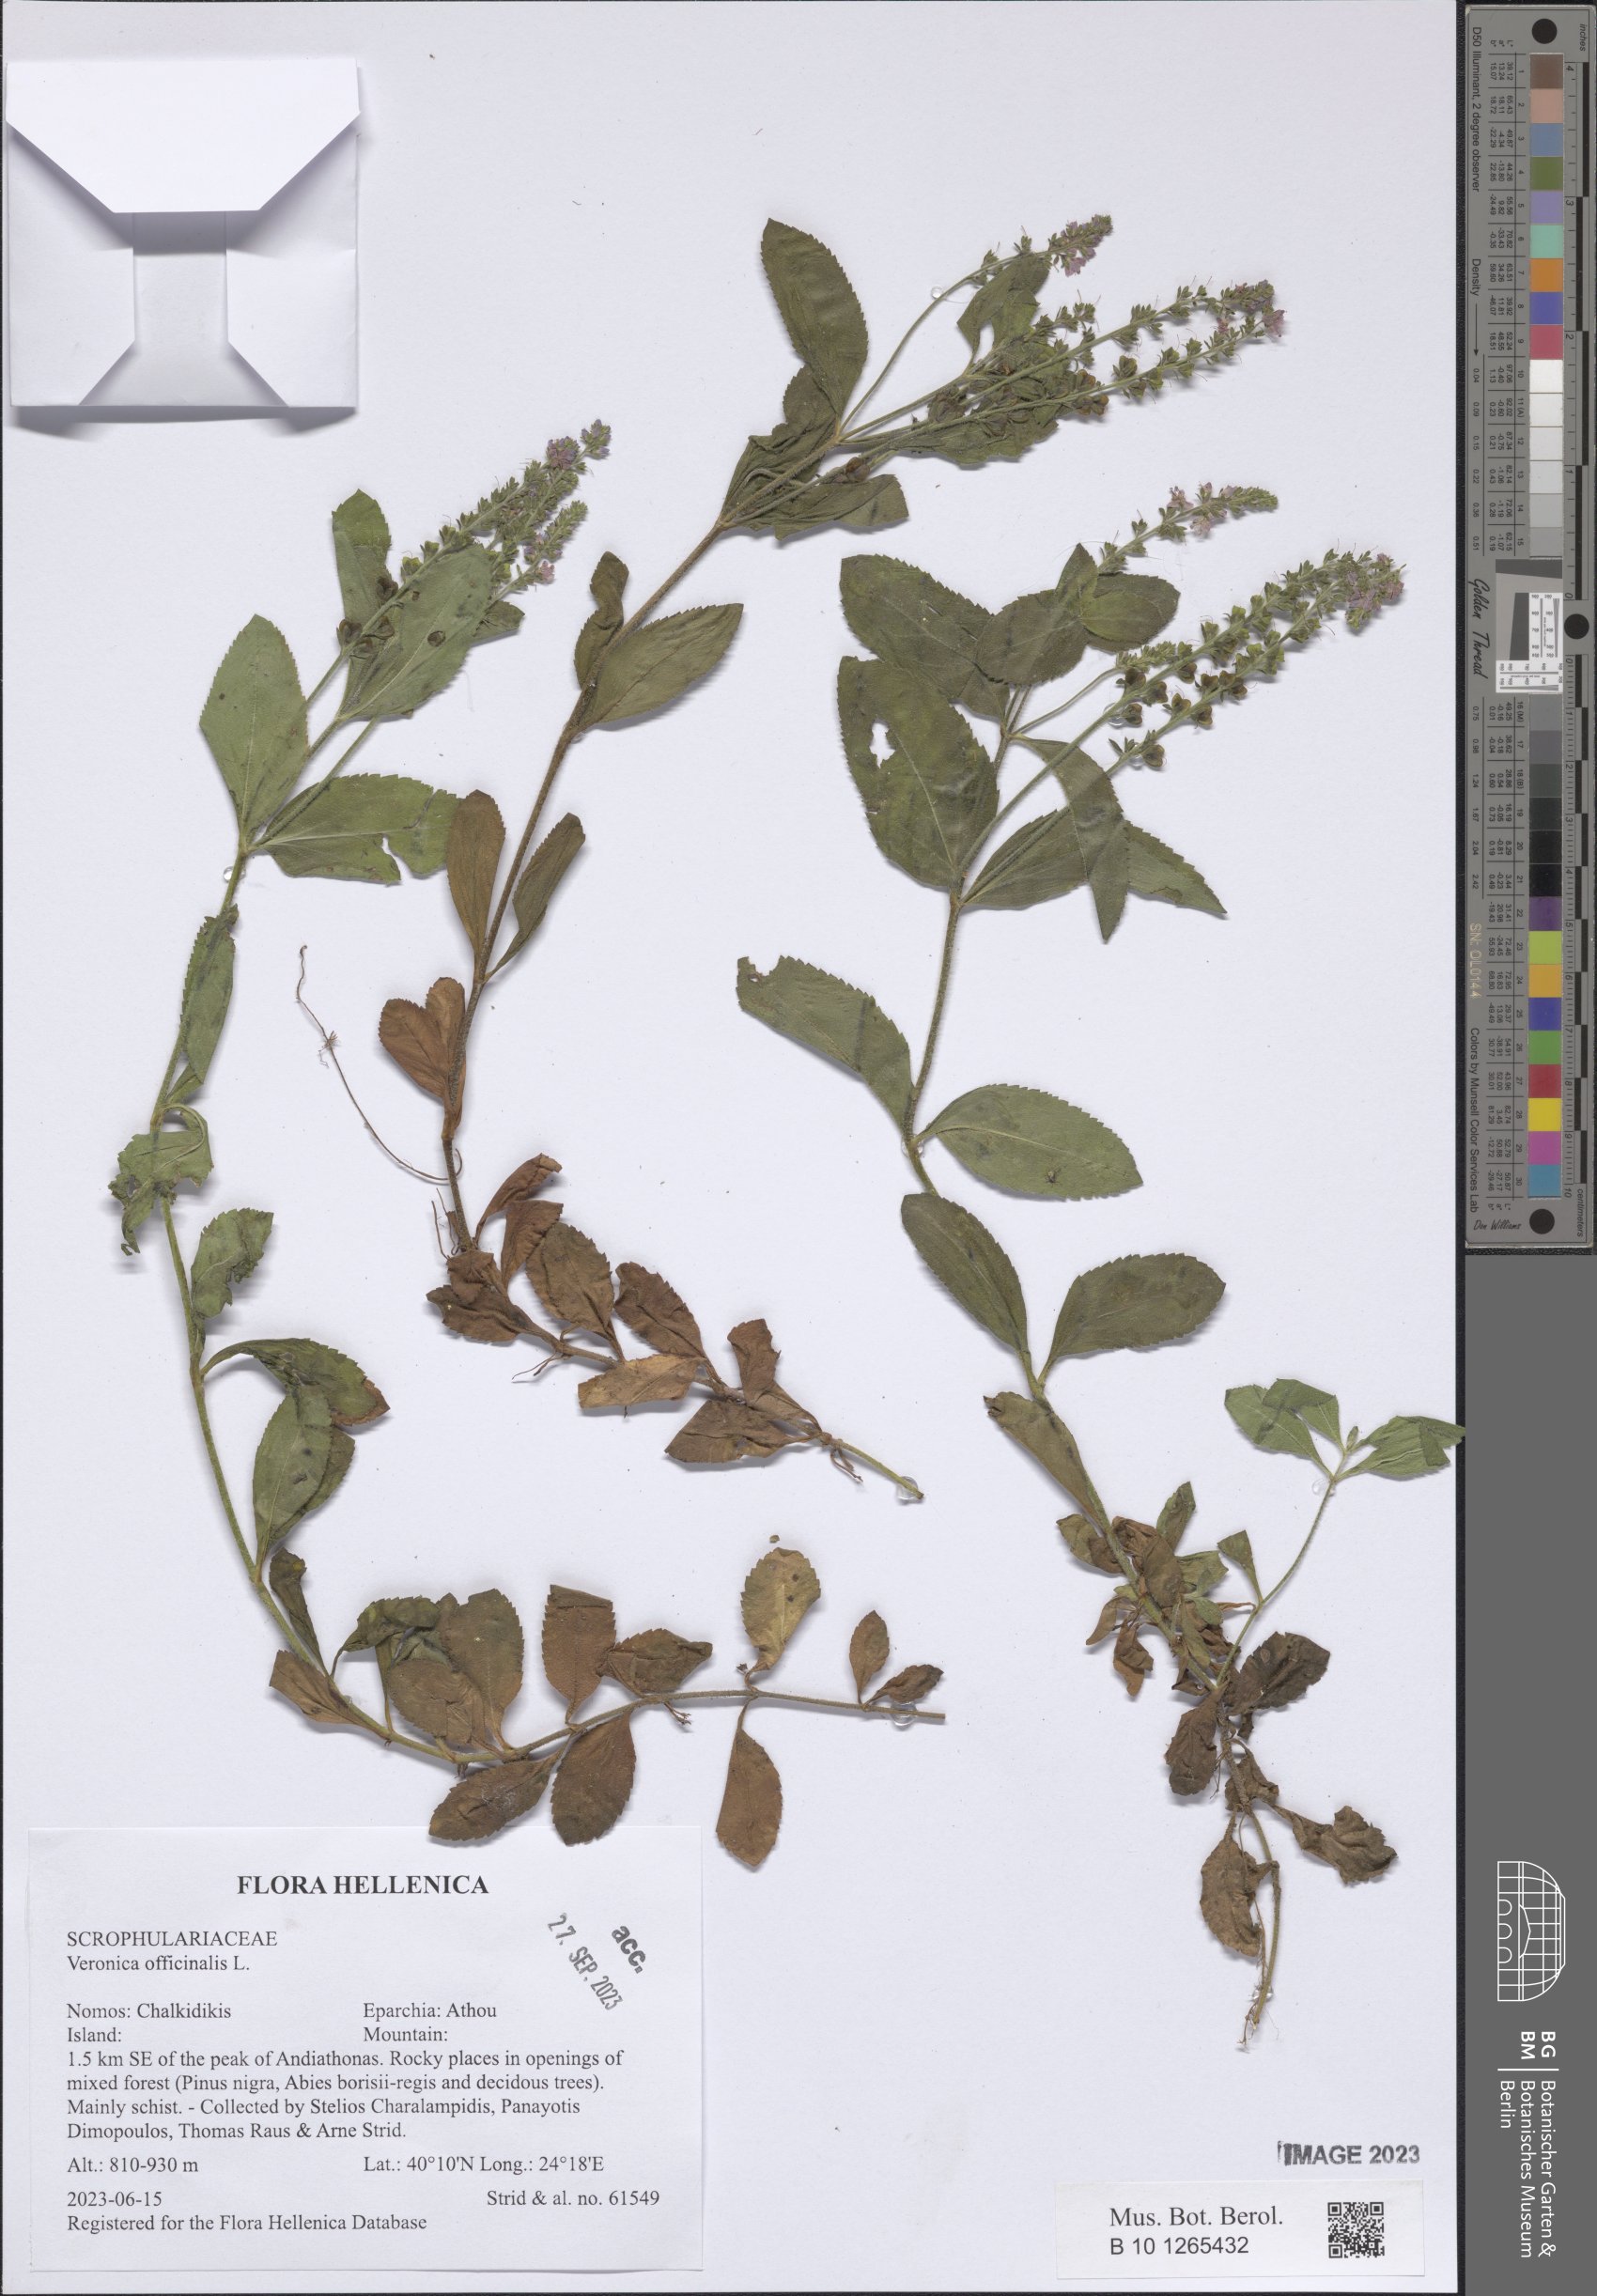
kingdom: Plantae
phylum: Tracheophyta
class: Magnoliopsida
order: Lamiales
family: Plantaginaceae
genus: Veronica
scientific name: Veronica officinalis
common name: Common speedwell
